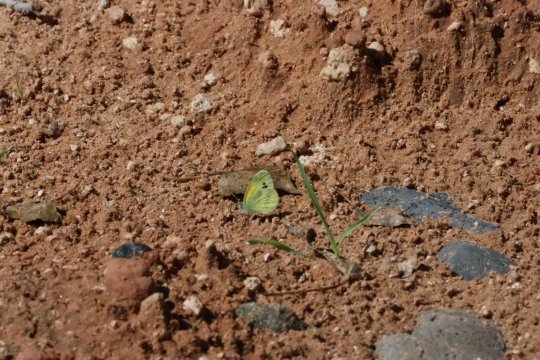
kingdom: Animalia
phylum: Arthropoda
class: Insecta
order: Lepidoptera
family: Pieridae
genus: Nathalis
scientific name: Nathalis iole
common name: Dainty Sulphur
